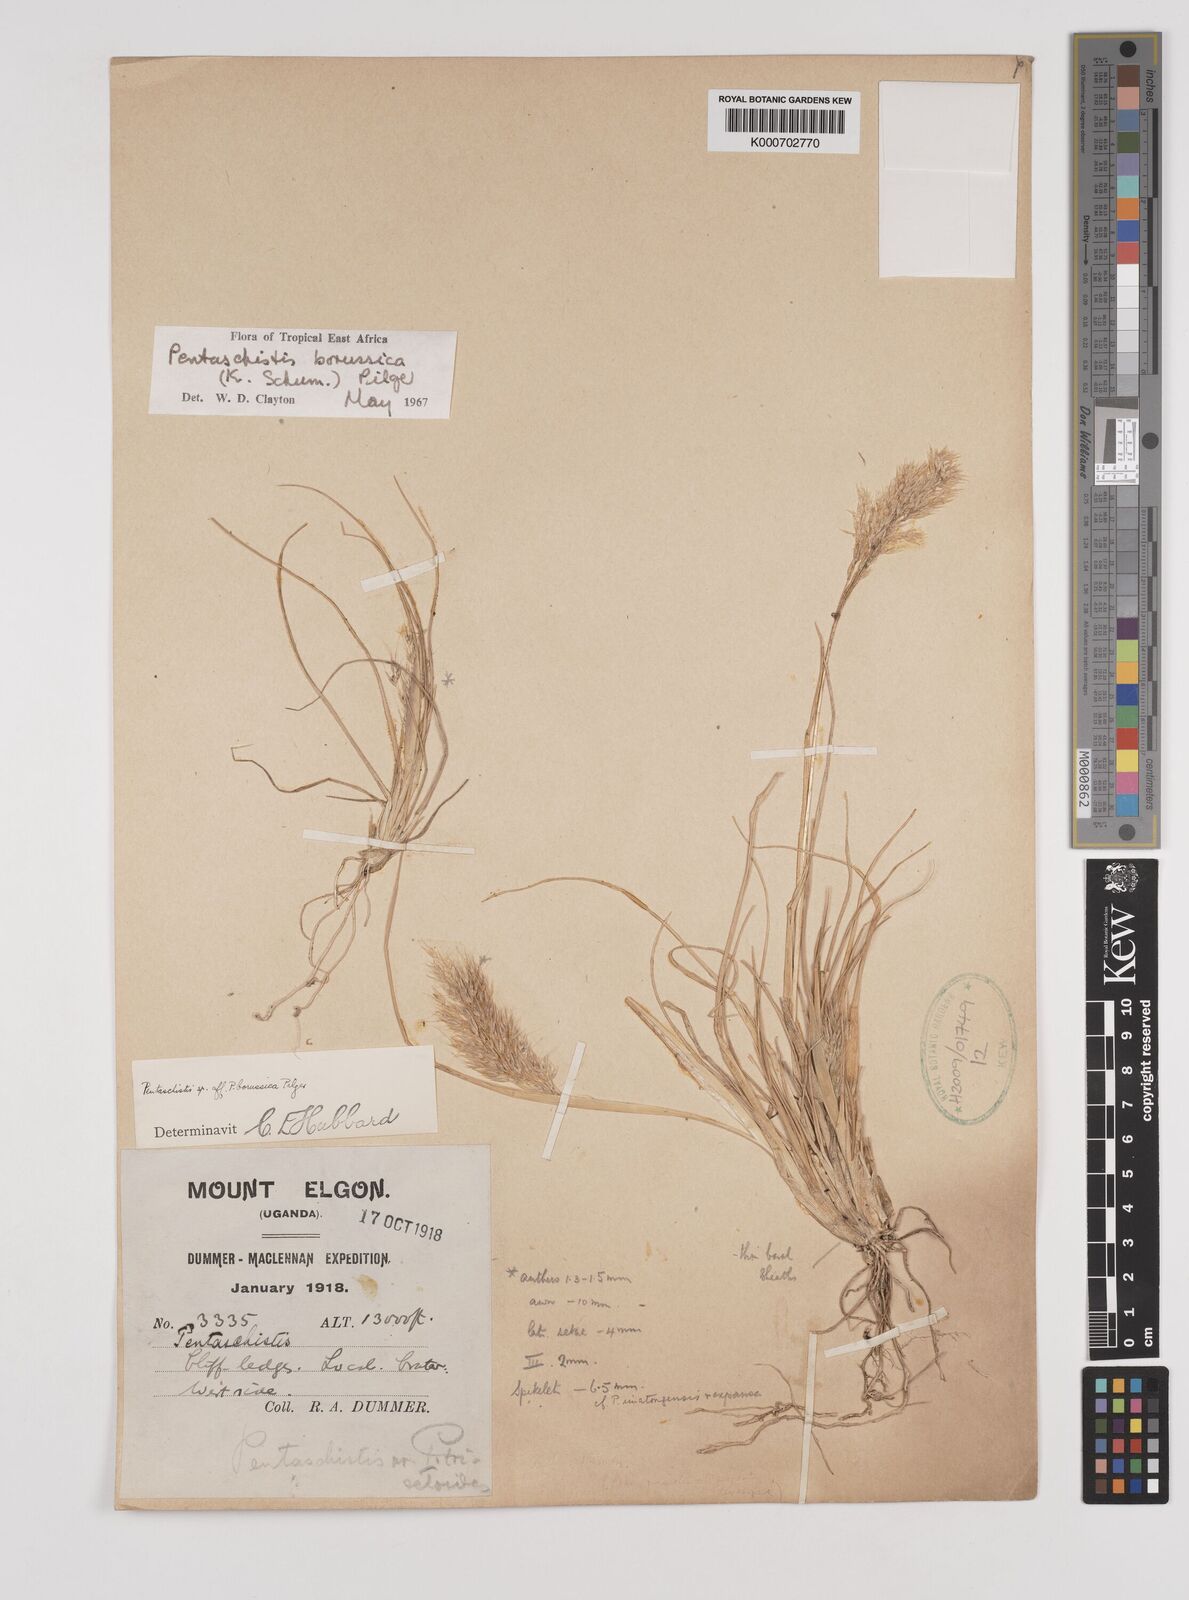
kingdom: Plantae
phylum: Tracheophyta
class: Liliopsida
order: Poales
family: Poaceae
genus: Pentameris
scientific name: Pentameris borussica
